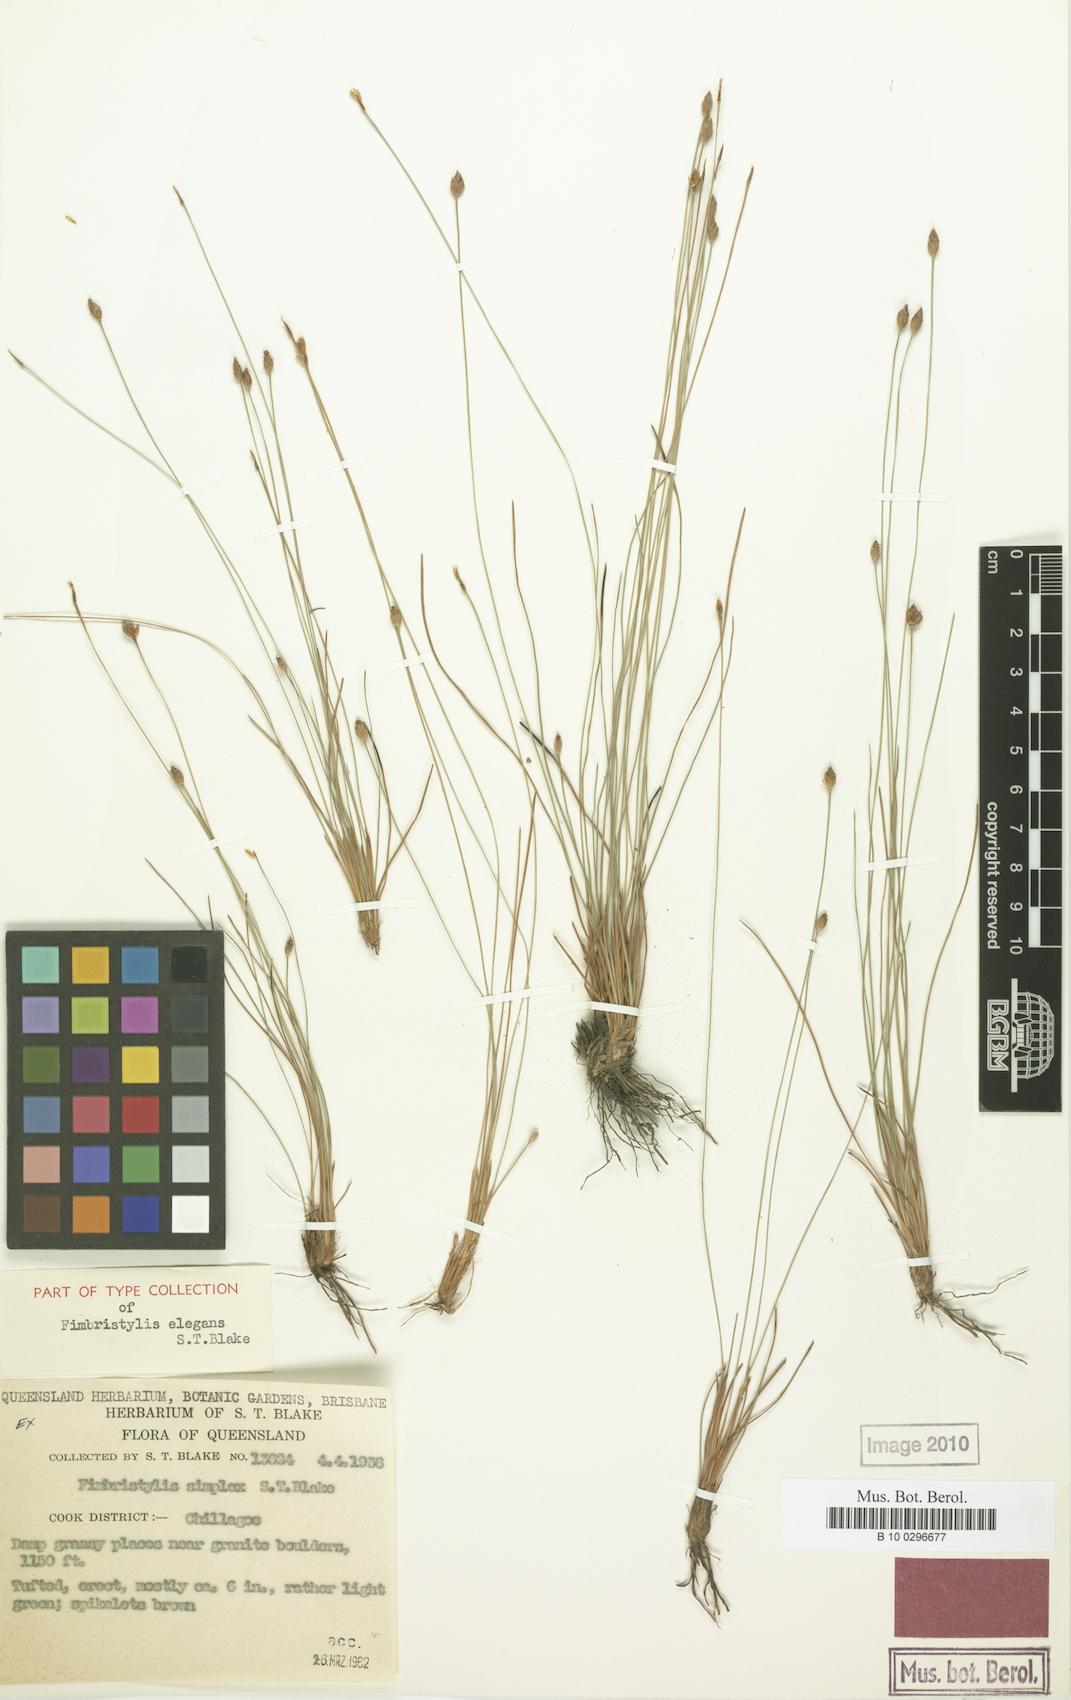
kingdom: Plantae
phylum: Tracheophyta
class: Liliopsida
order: Poales
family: Cyperaceae
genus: Fimbristylis
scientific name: Fimbristylis simplex
